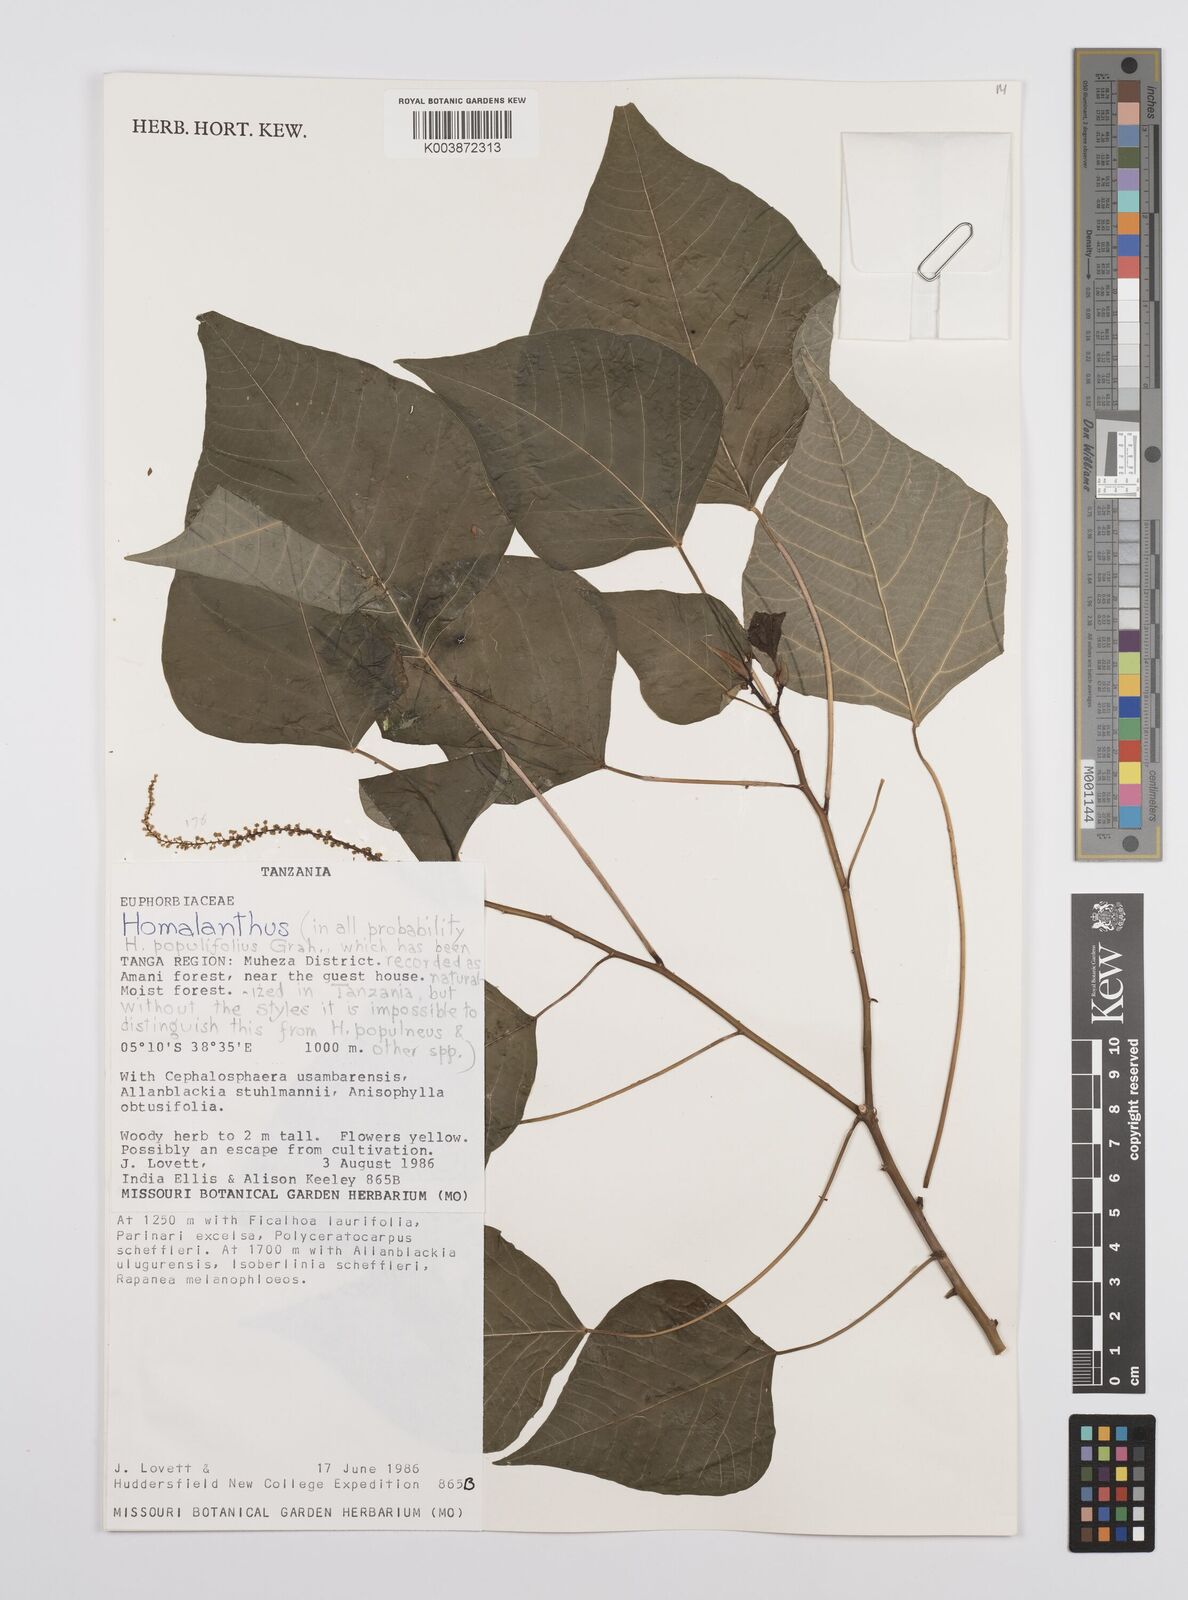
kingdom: Plantae
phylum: Tracheophyta
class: Magnoliopsida
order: Malpighiales
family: Euphorbiaceae
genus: Homalanthus
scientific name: Homalanthus populifolius
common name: Queensland poplar
